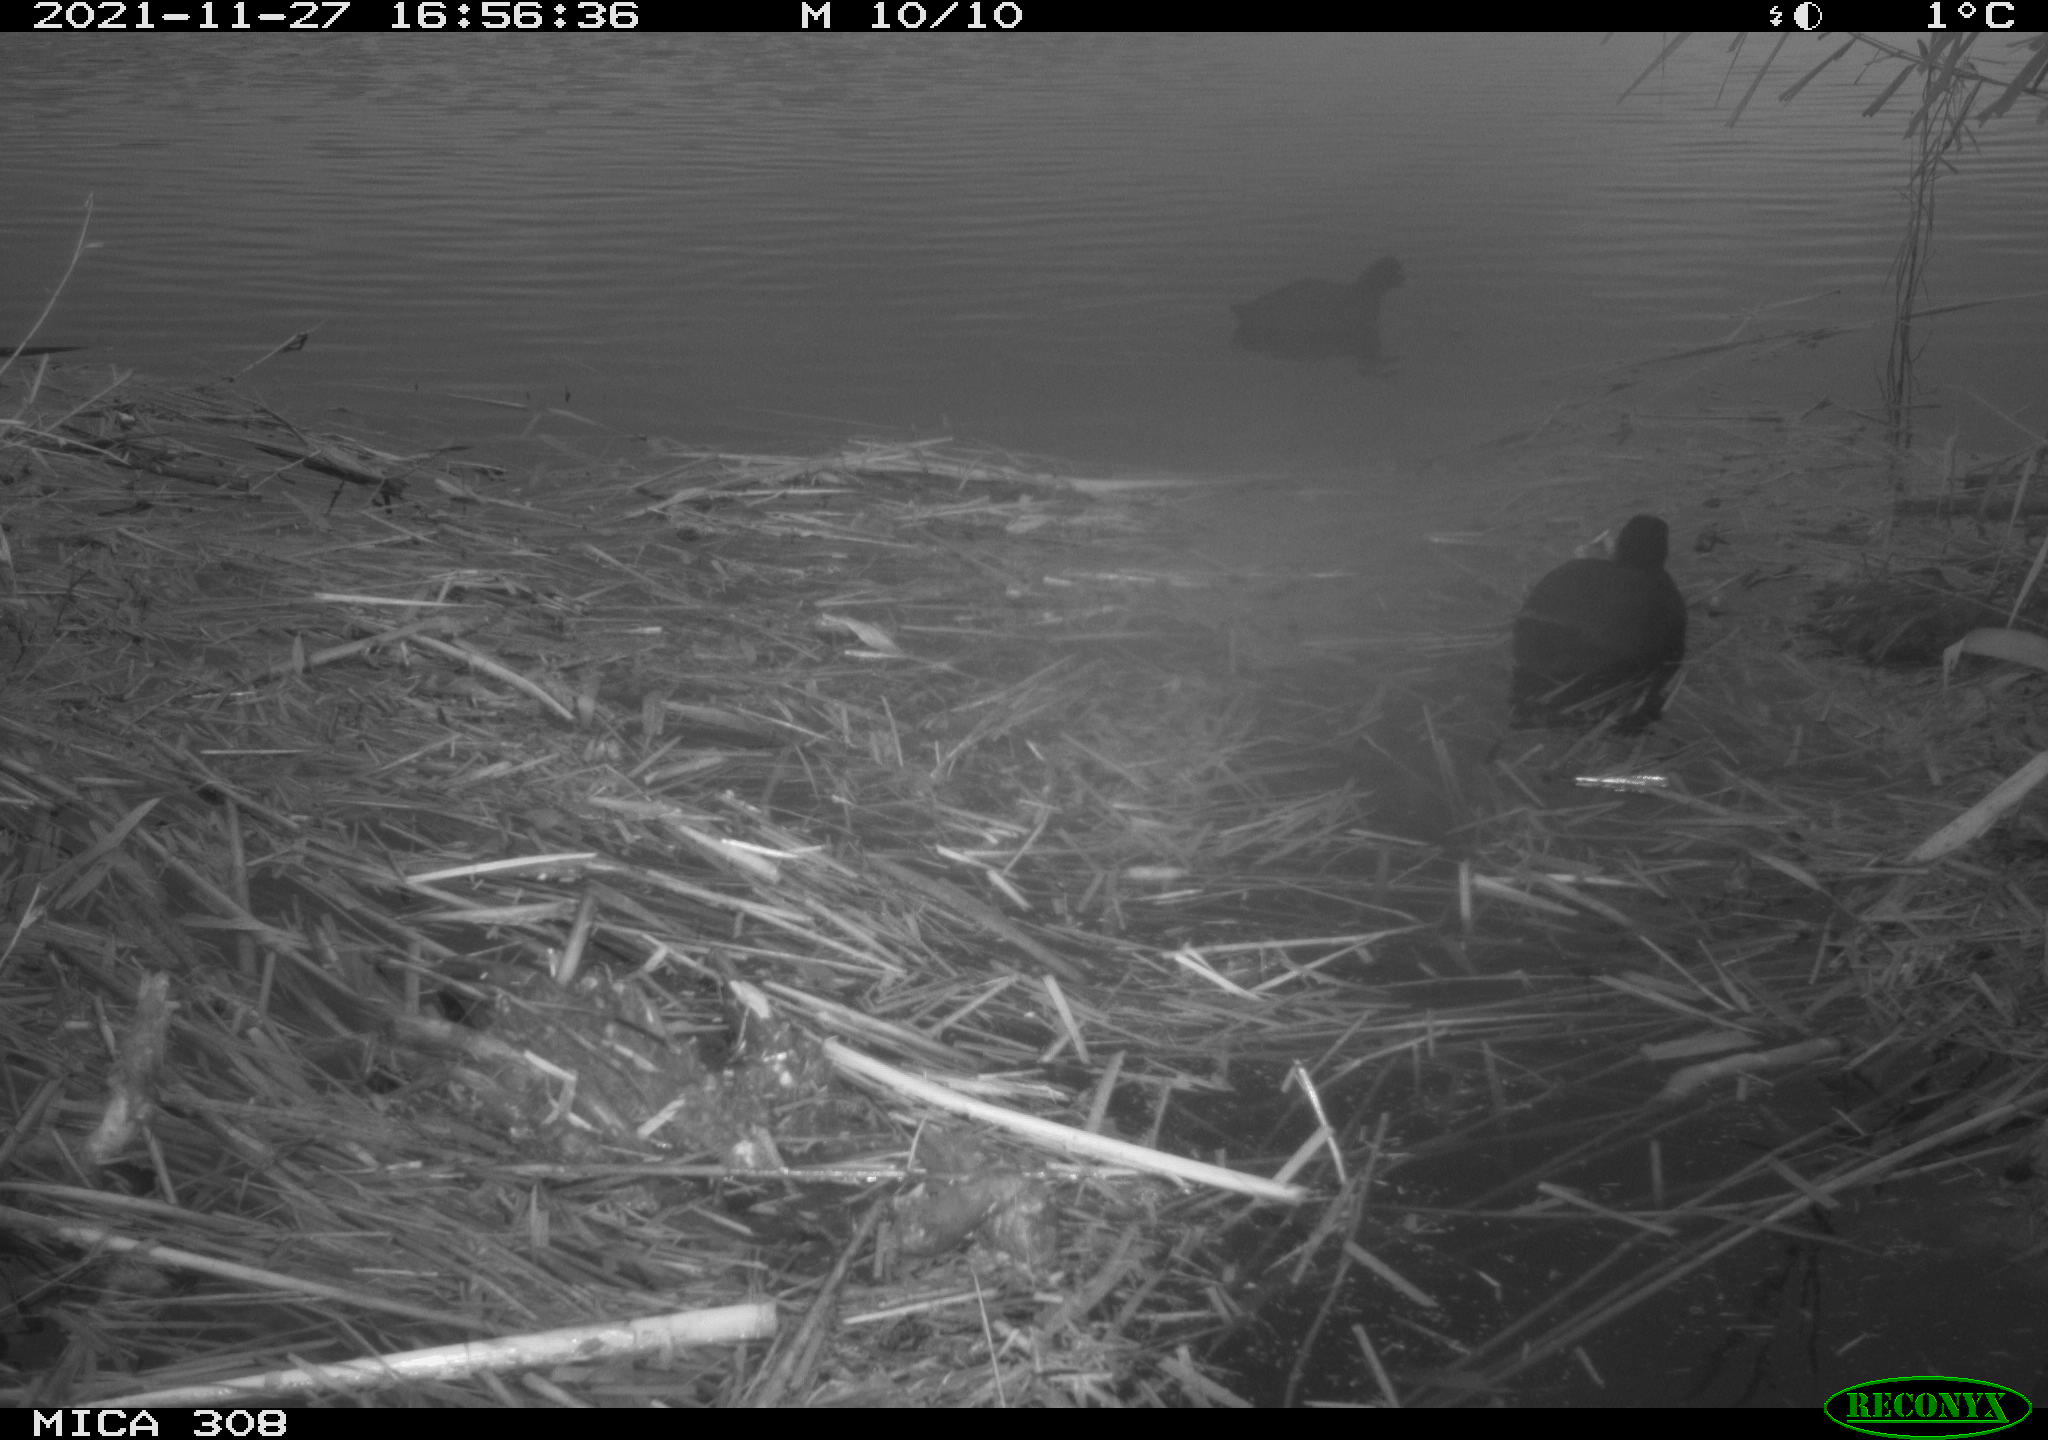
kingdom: Animalia
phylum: Chordata
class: Aves
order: Gruiformes
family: Rallidae
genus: Fulica
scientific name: Fulica atra
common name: Eurasian coot
